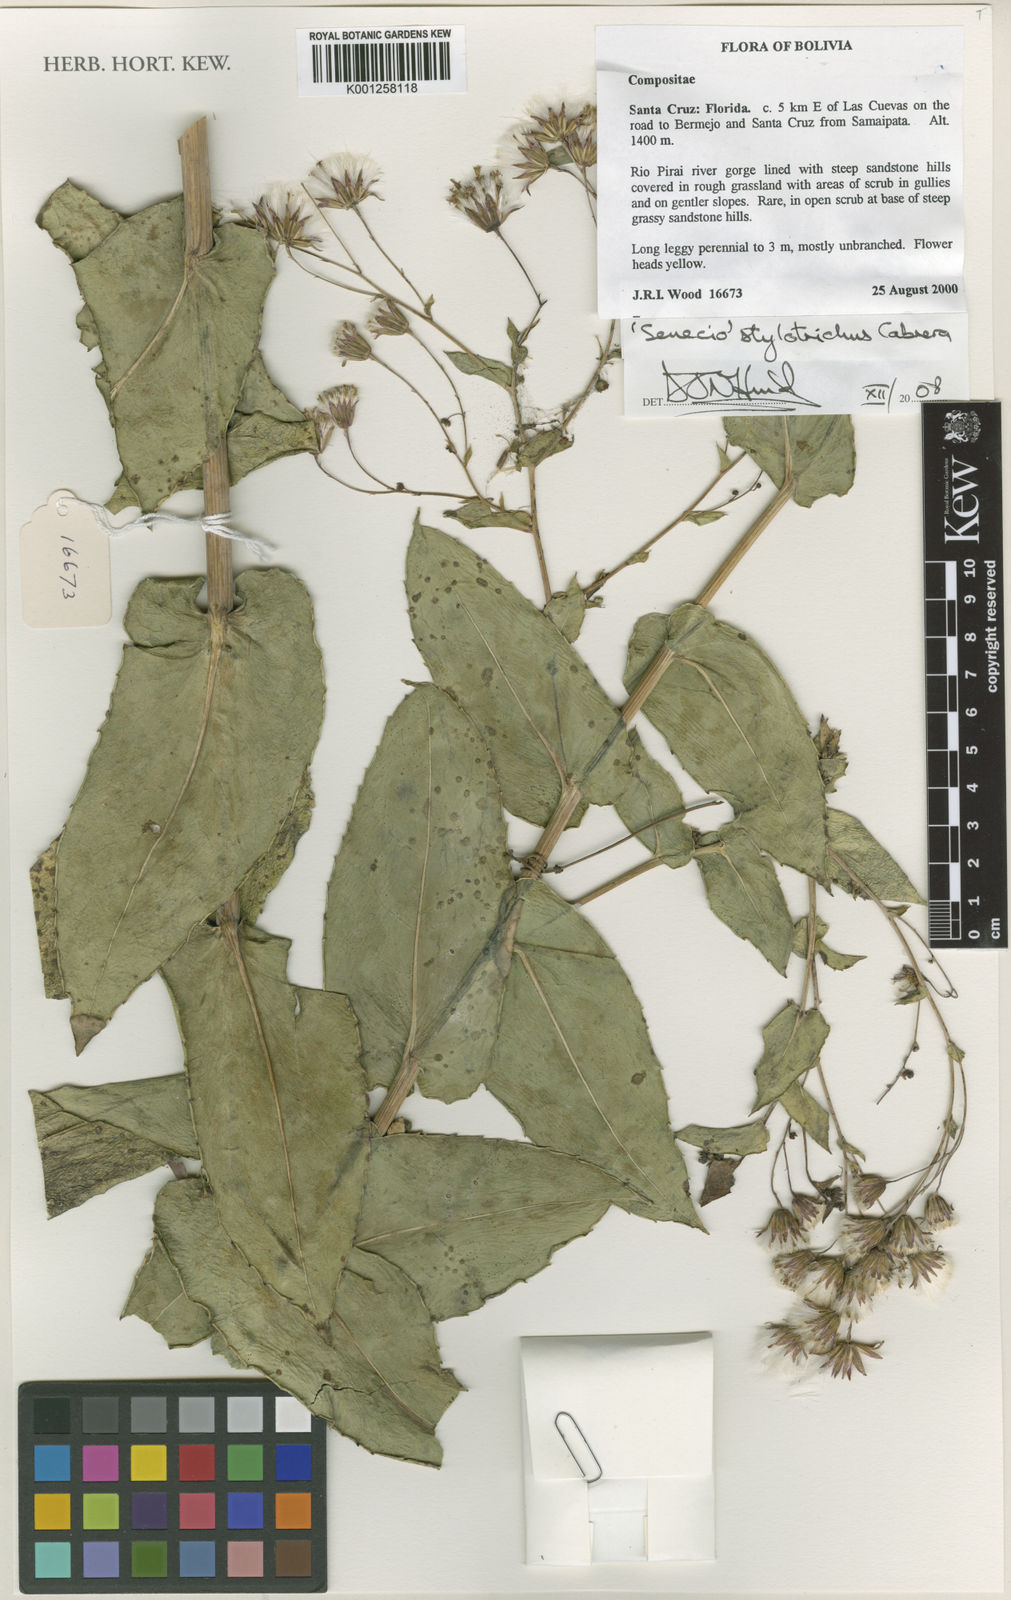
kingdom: Plantae
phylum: Tracheophyta
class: Magnoliopsida
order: Asterales
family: Asteraceae
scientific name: Asteraceae
